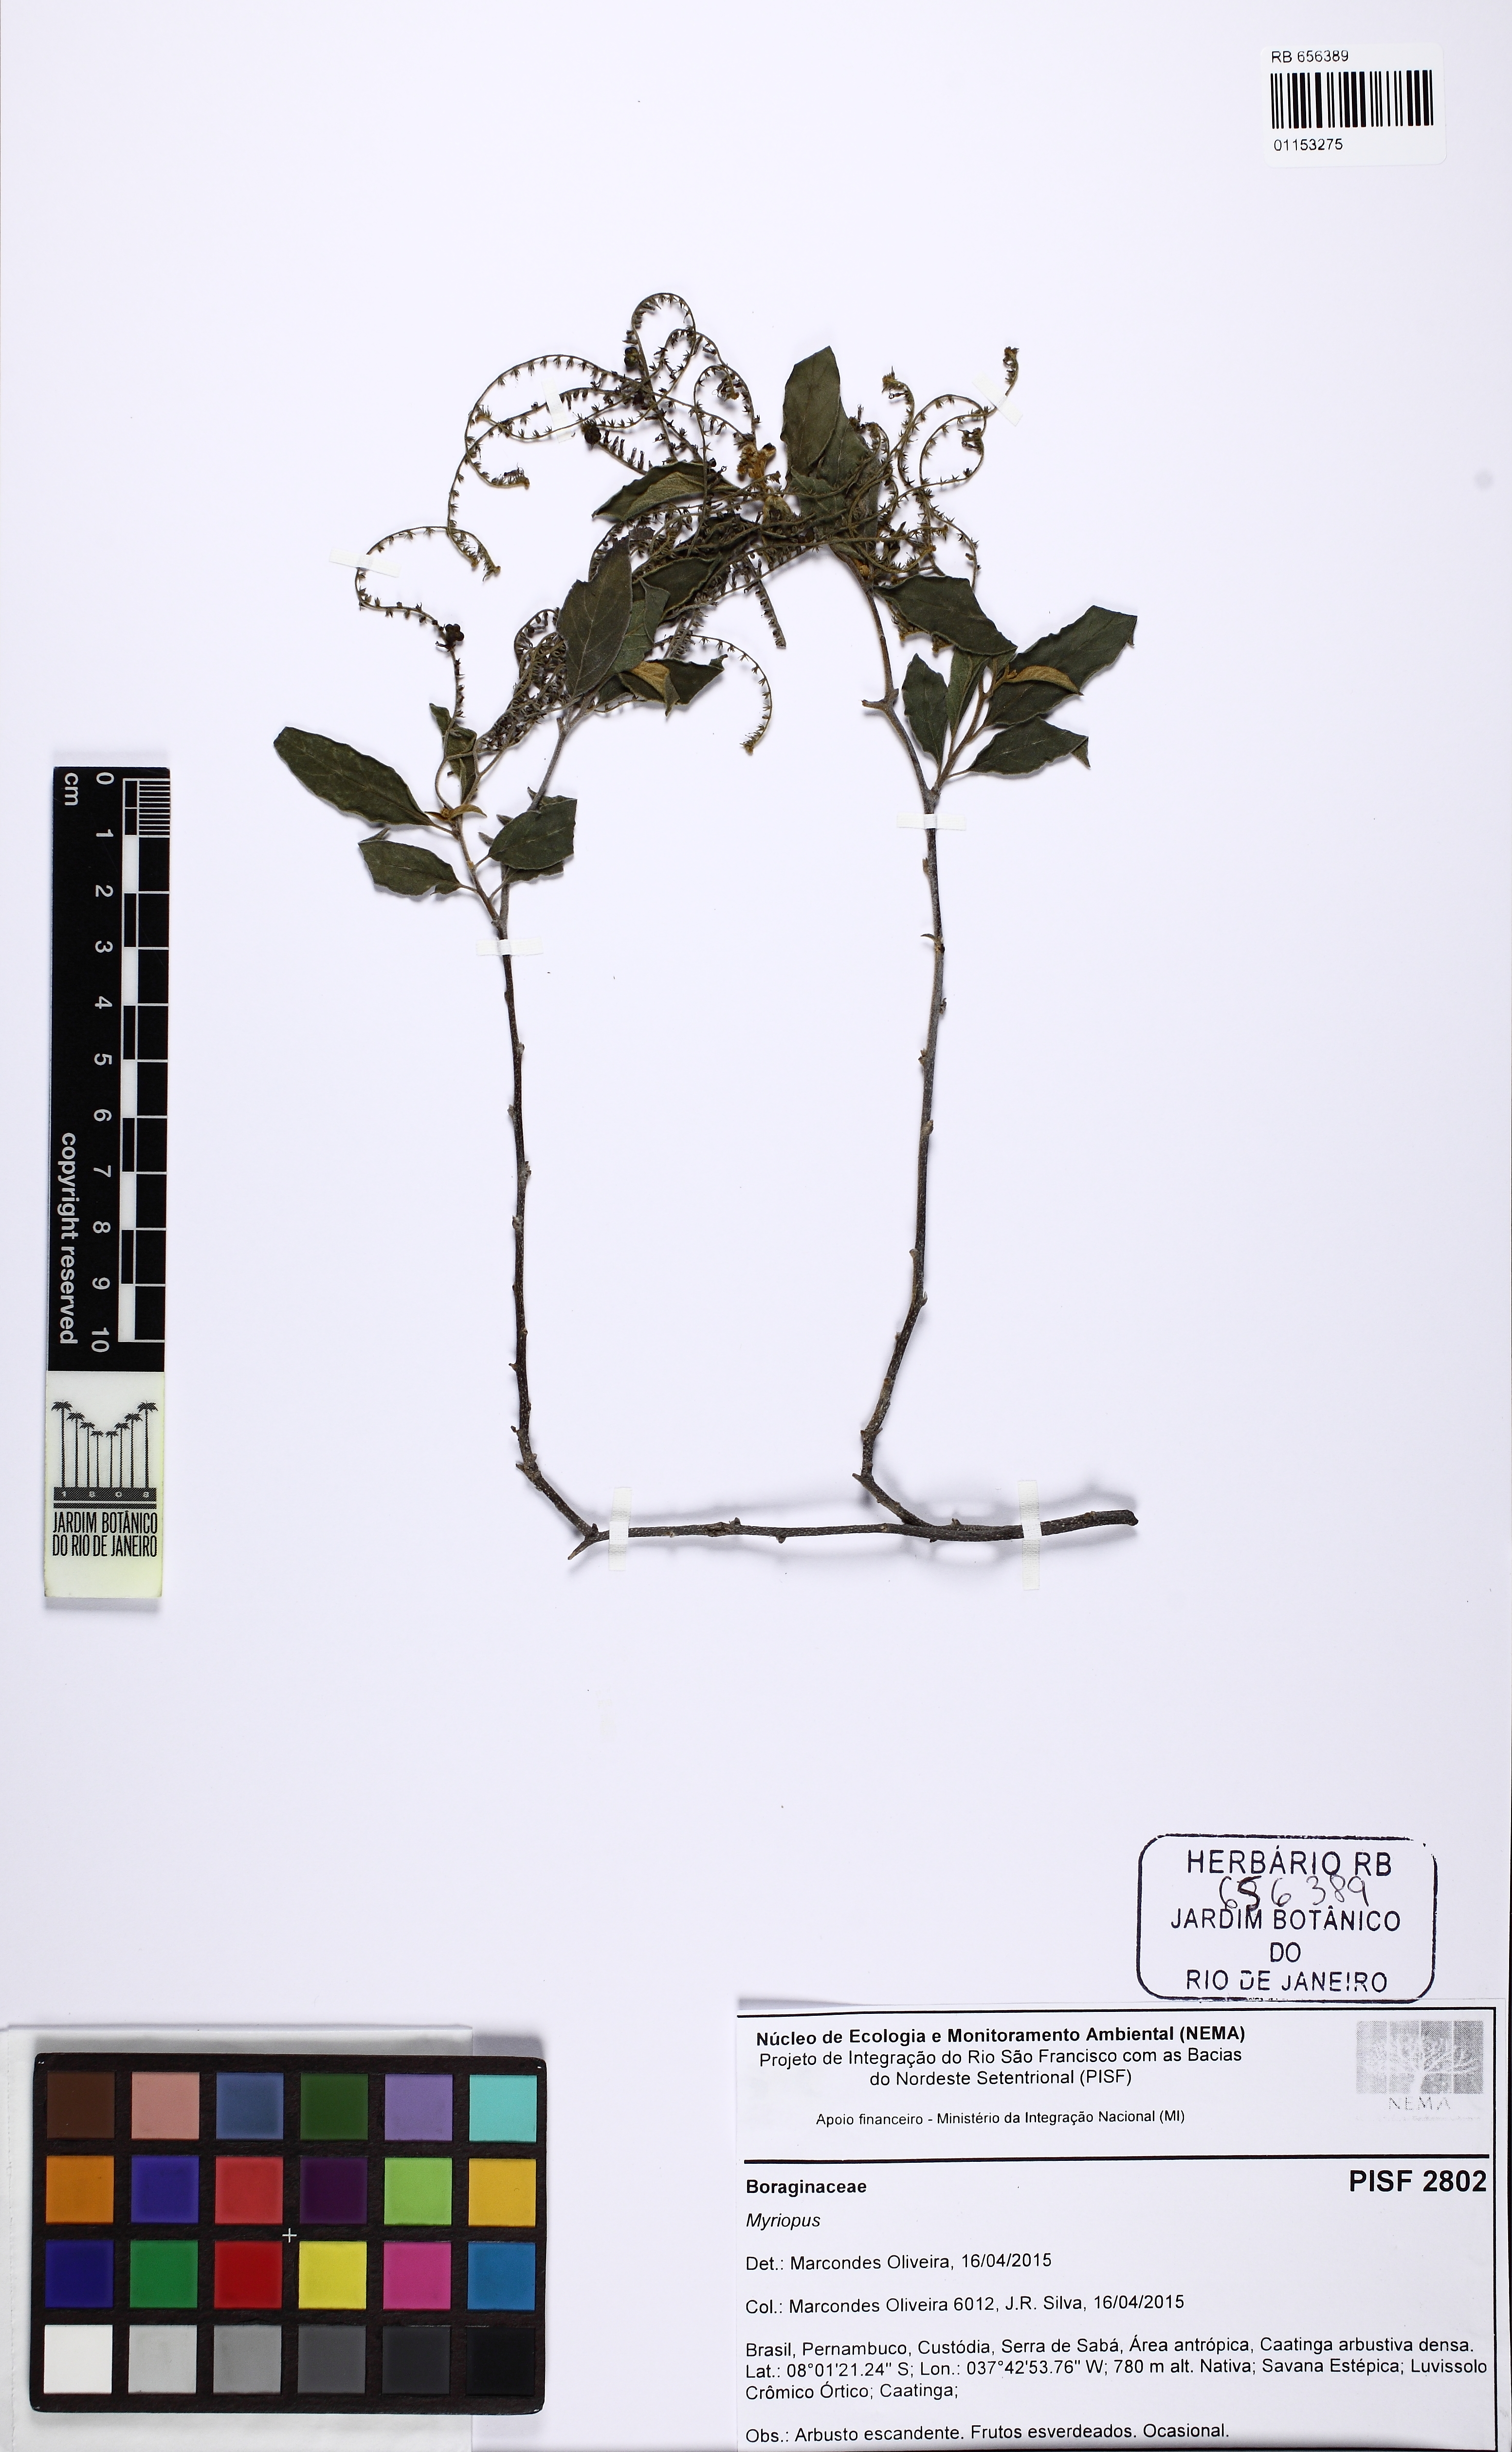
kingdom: Plantae
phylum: Tracheophyta
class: Magnoliopsida
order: Boraginales
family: Heliotropiaceae
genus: Myriopus
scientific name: Myriopus salzmannii
